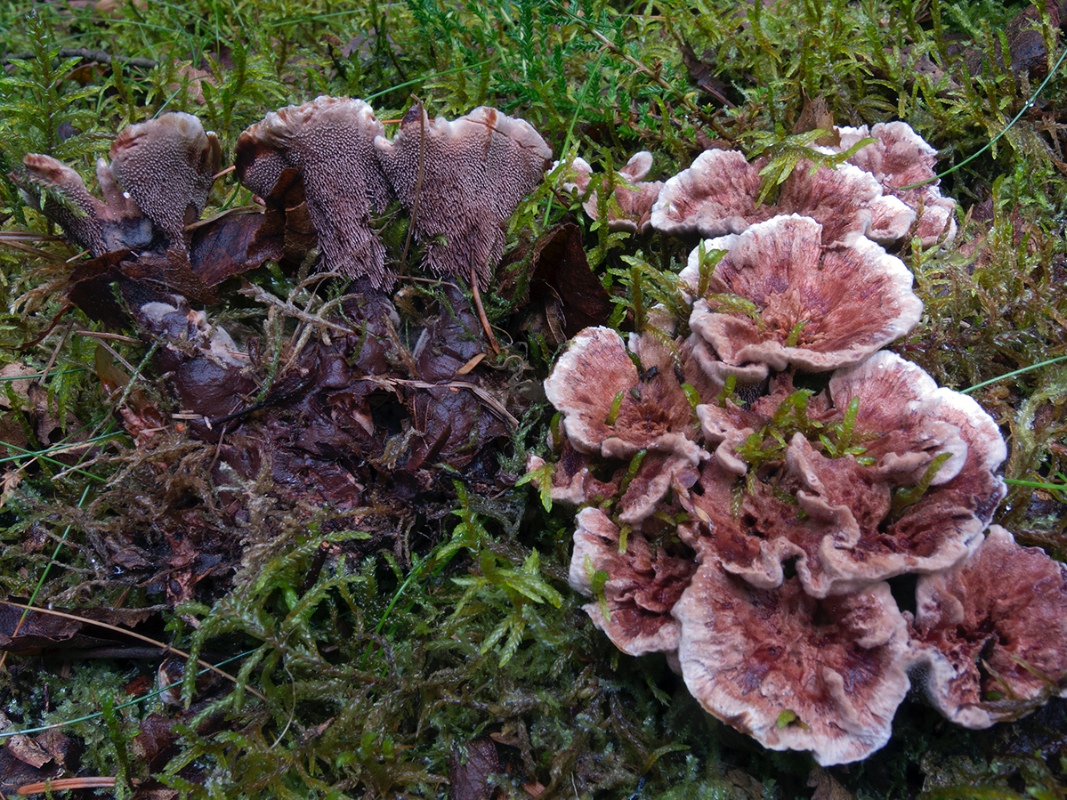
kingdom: Fungi
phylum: Basidiomycota
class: Agaricomycetes
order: Thelephorales
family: Bankeraceae
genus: Hydnellum
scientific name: Hydnellum concrescens
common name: bæltet korkpigsvamp
